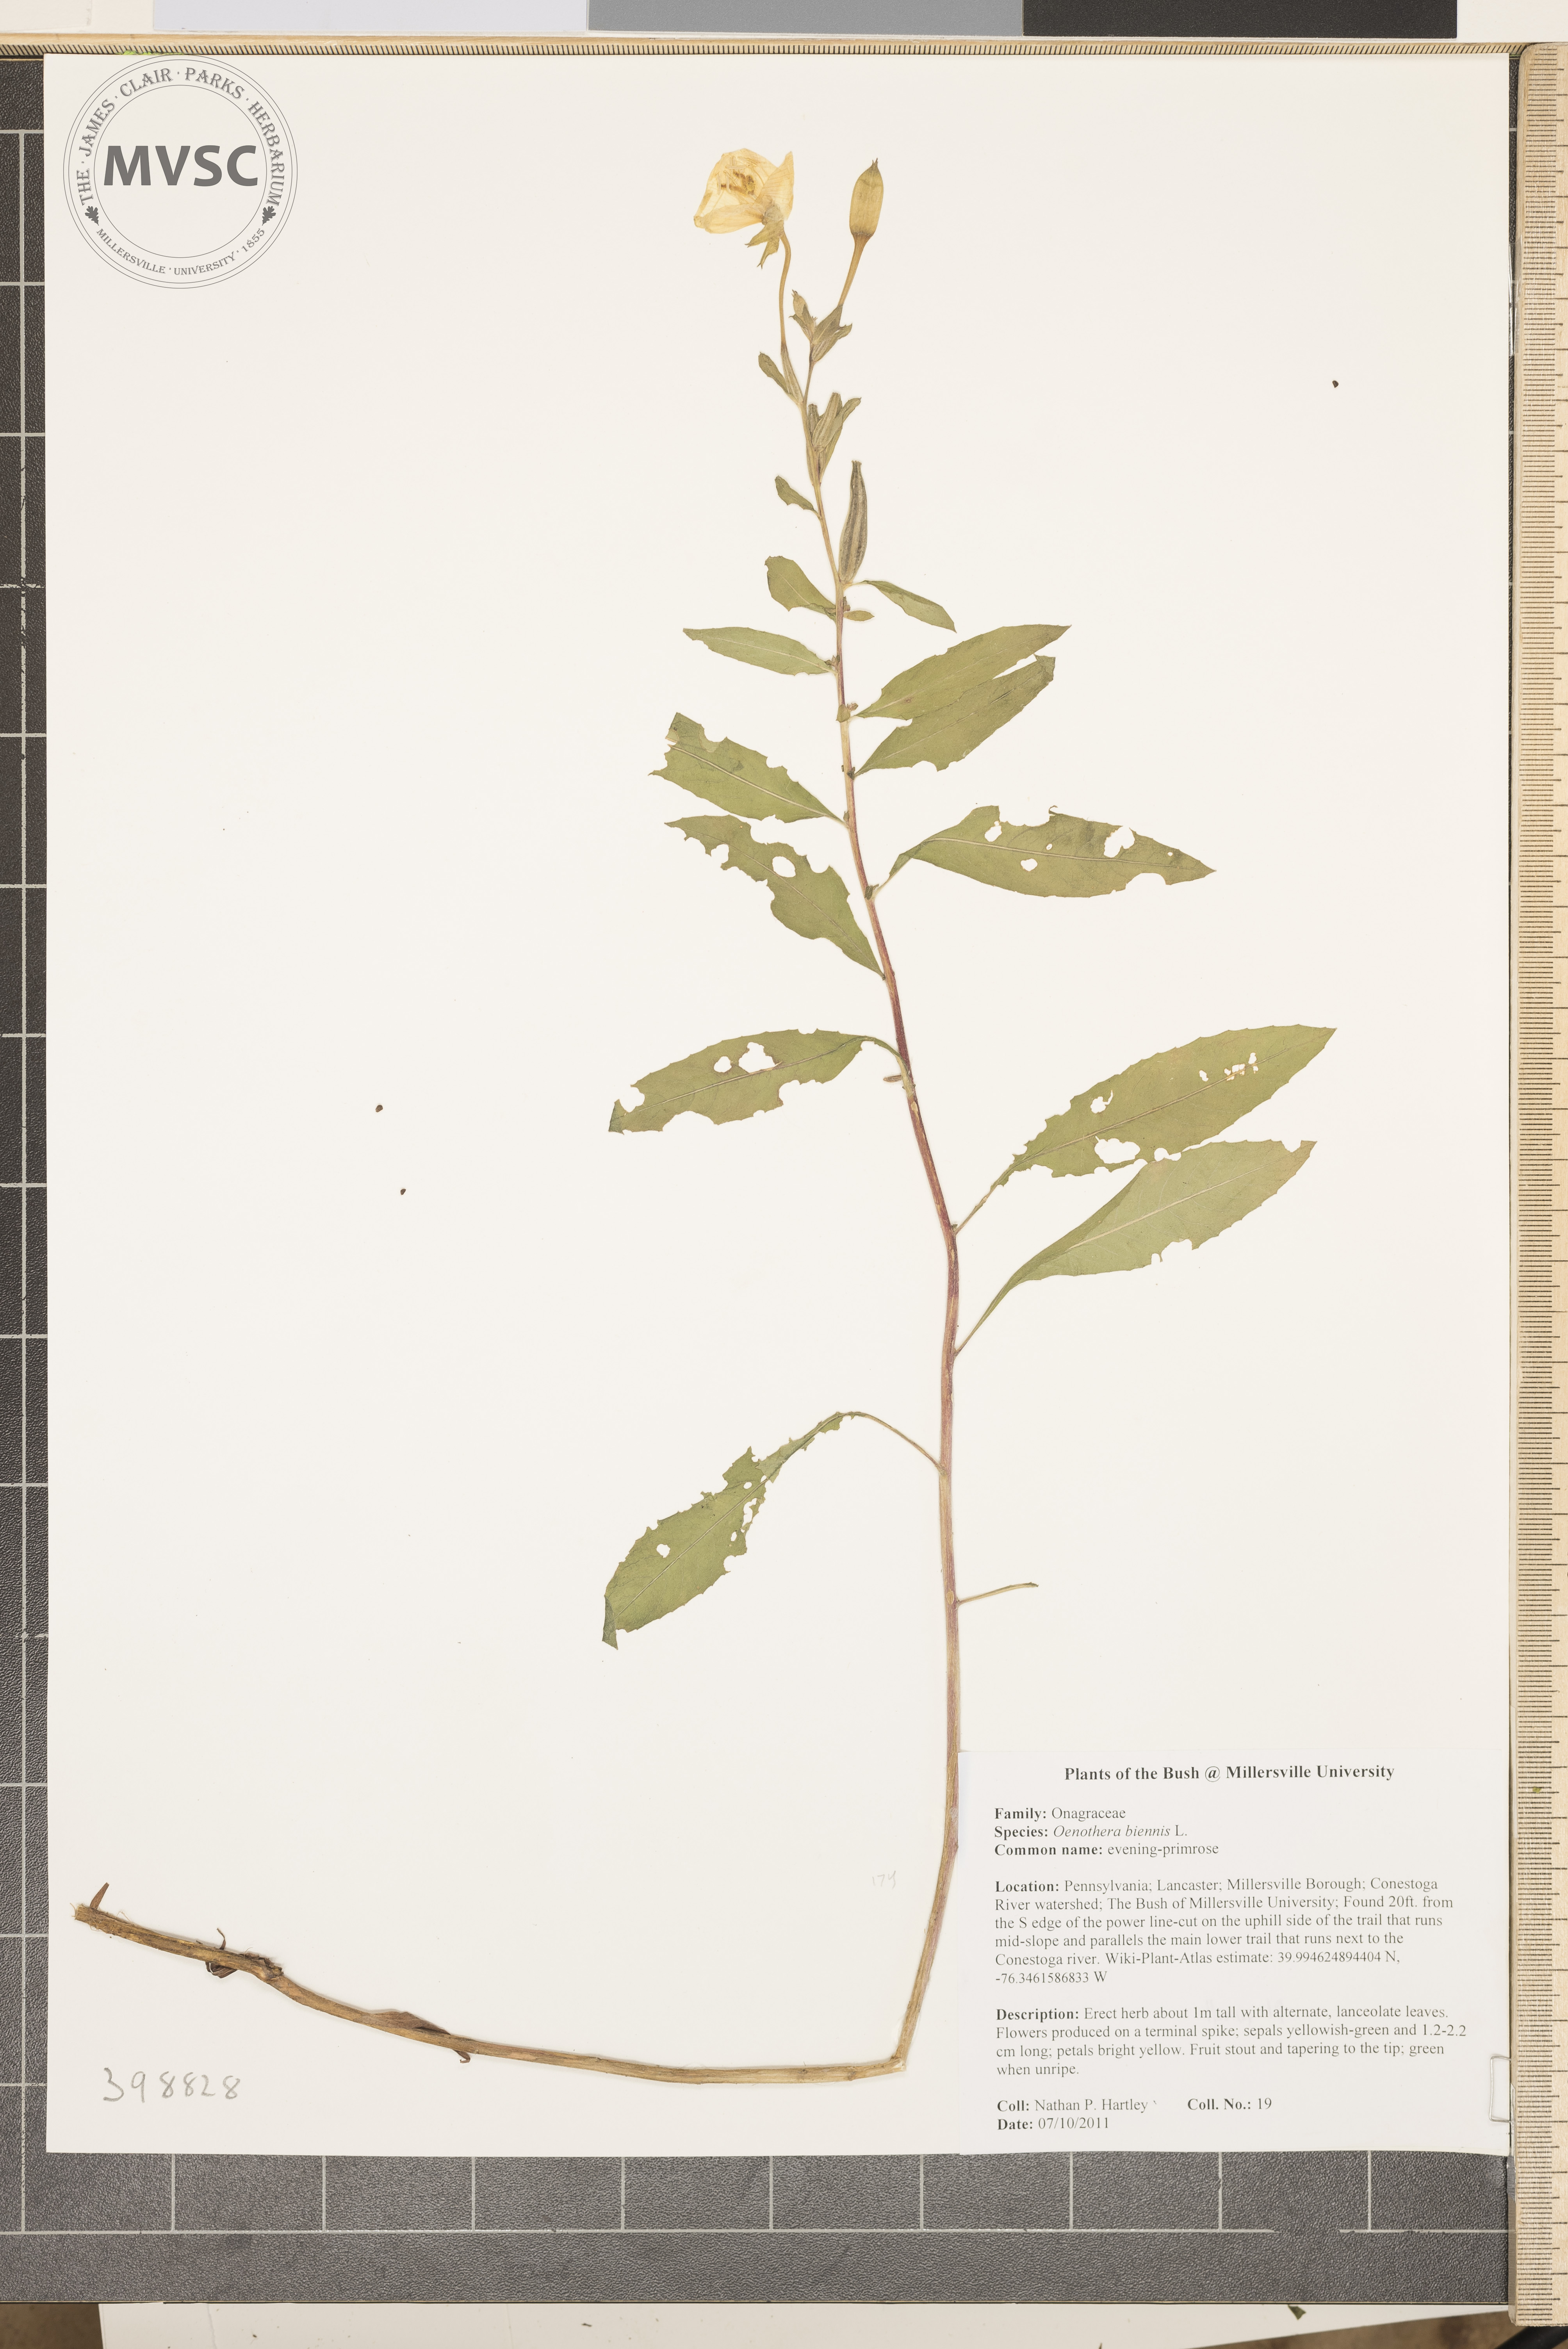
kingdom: Plantae
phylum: Tracheophyta
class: Magnoliopsida
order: Myrtales
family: Onagraceae
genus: Oenothera
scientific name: Oenothera biennis
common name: Evening-primrose
